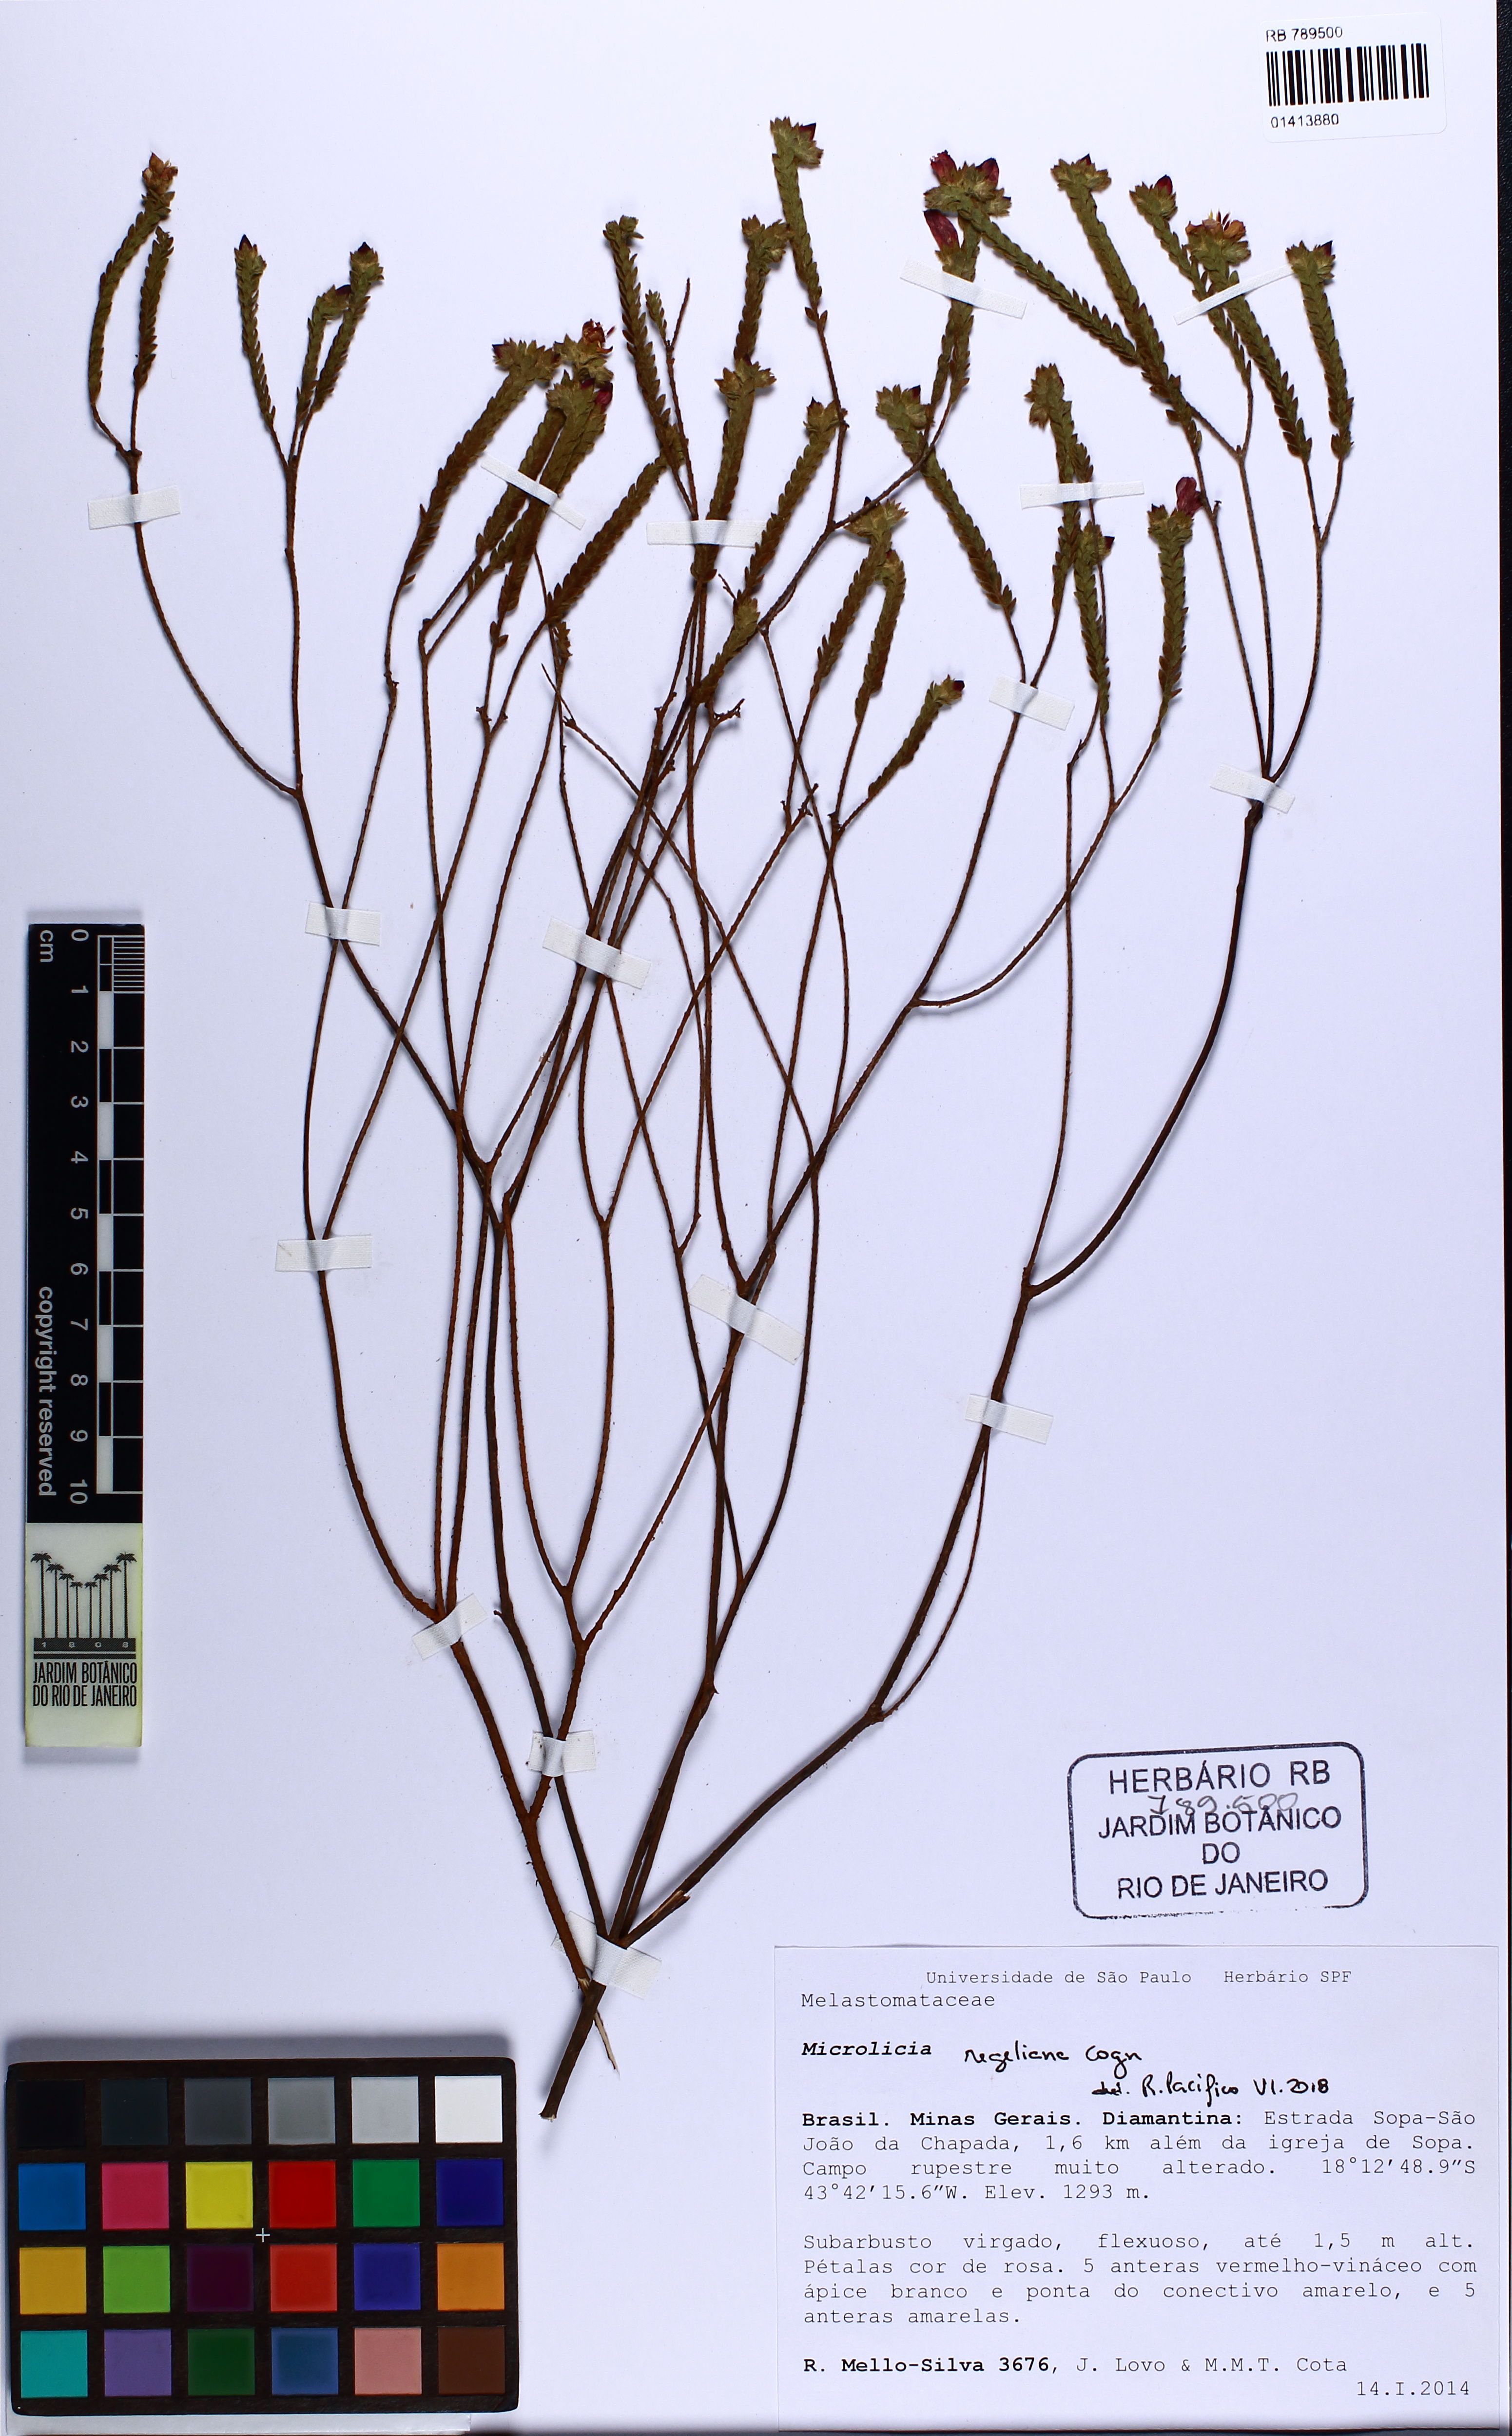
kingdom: Plantae
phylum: Tracheophyta
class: Magnoliopsida
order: Myrtales
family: Melastomataceae
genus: Microlicia
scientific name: Microlicia regeliana
